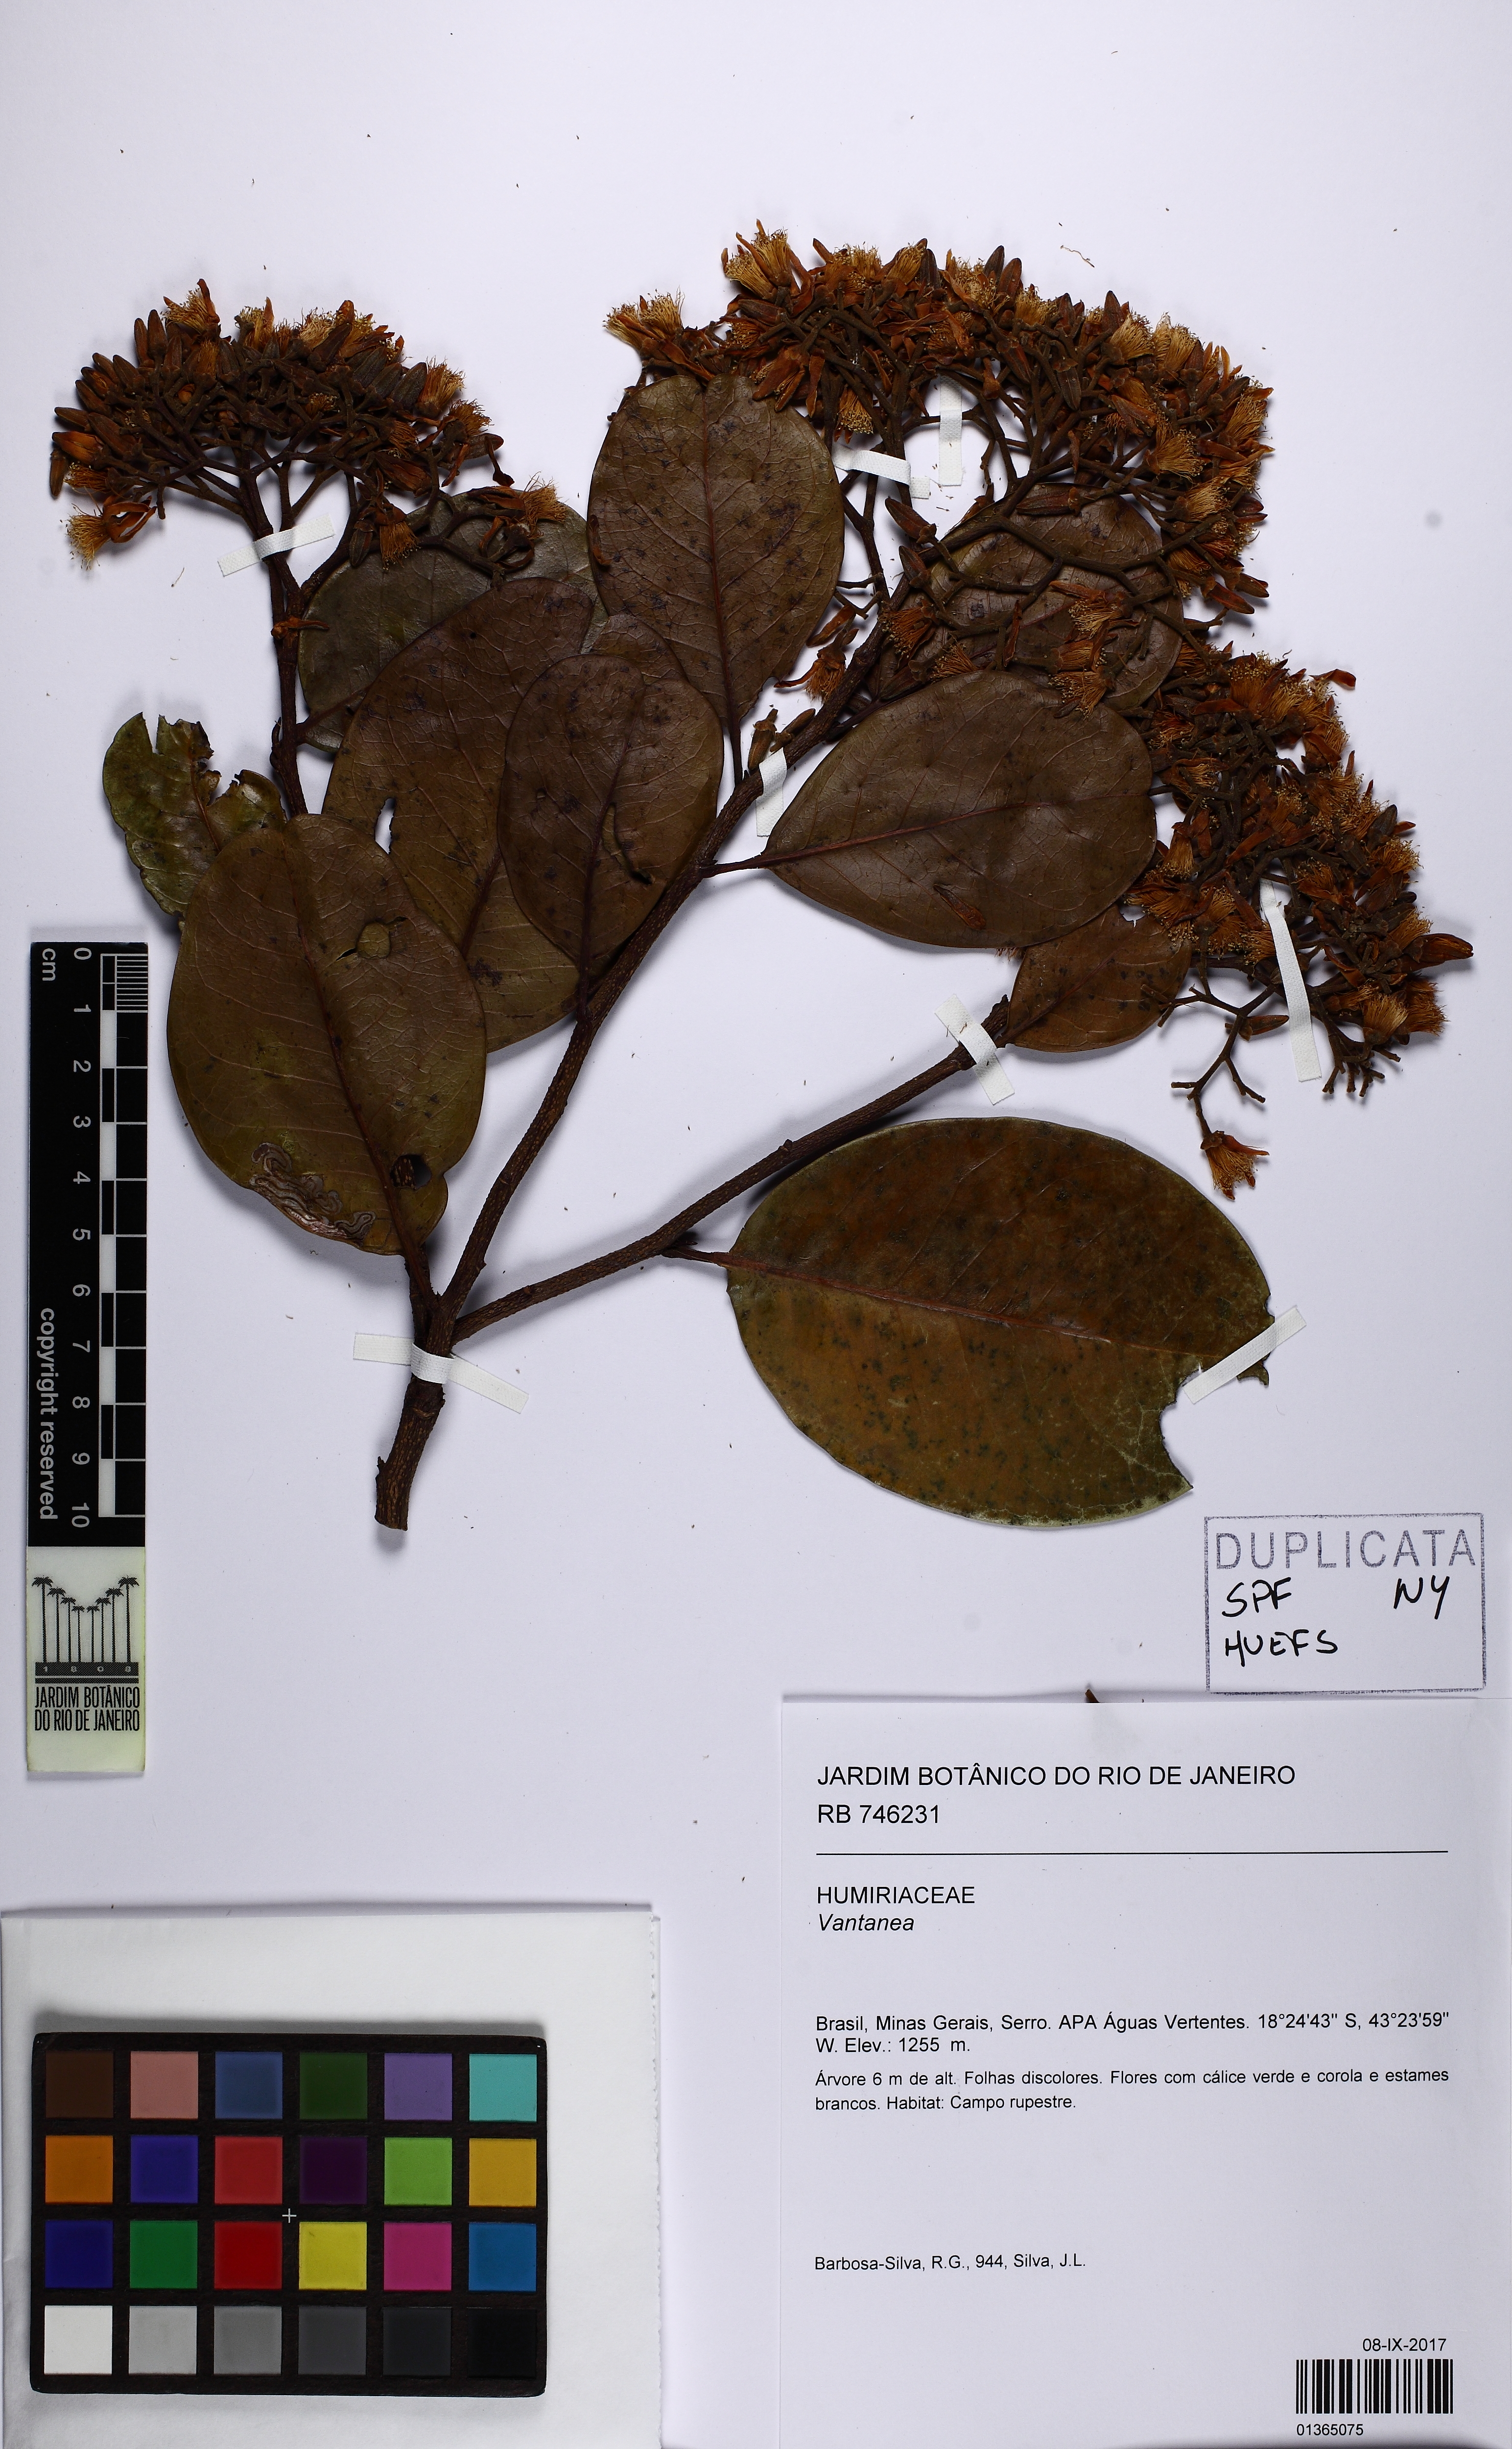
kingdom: Plantae
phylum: Tracheophyta
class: Magnoliopsida
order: Malpighiales
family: Humiriaceae
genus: Vantanea
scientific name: Vantanea obovata
